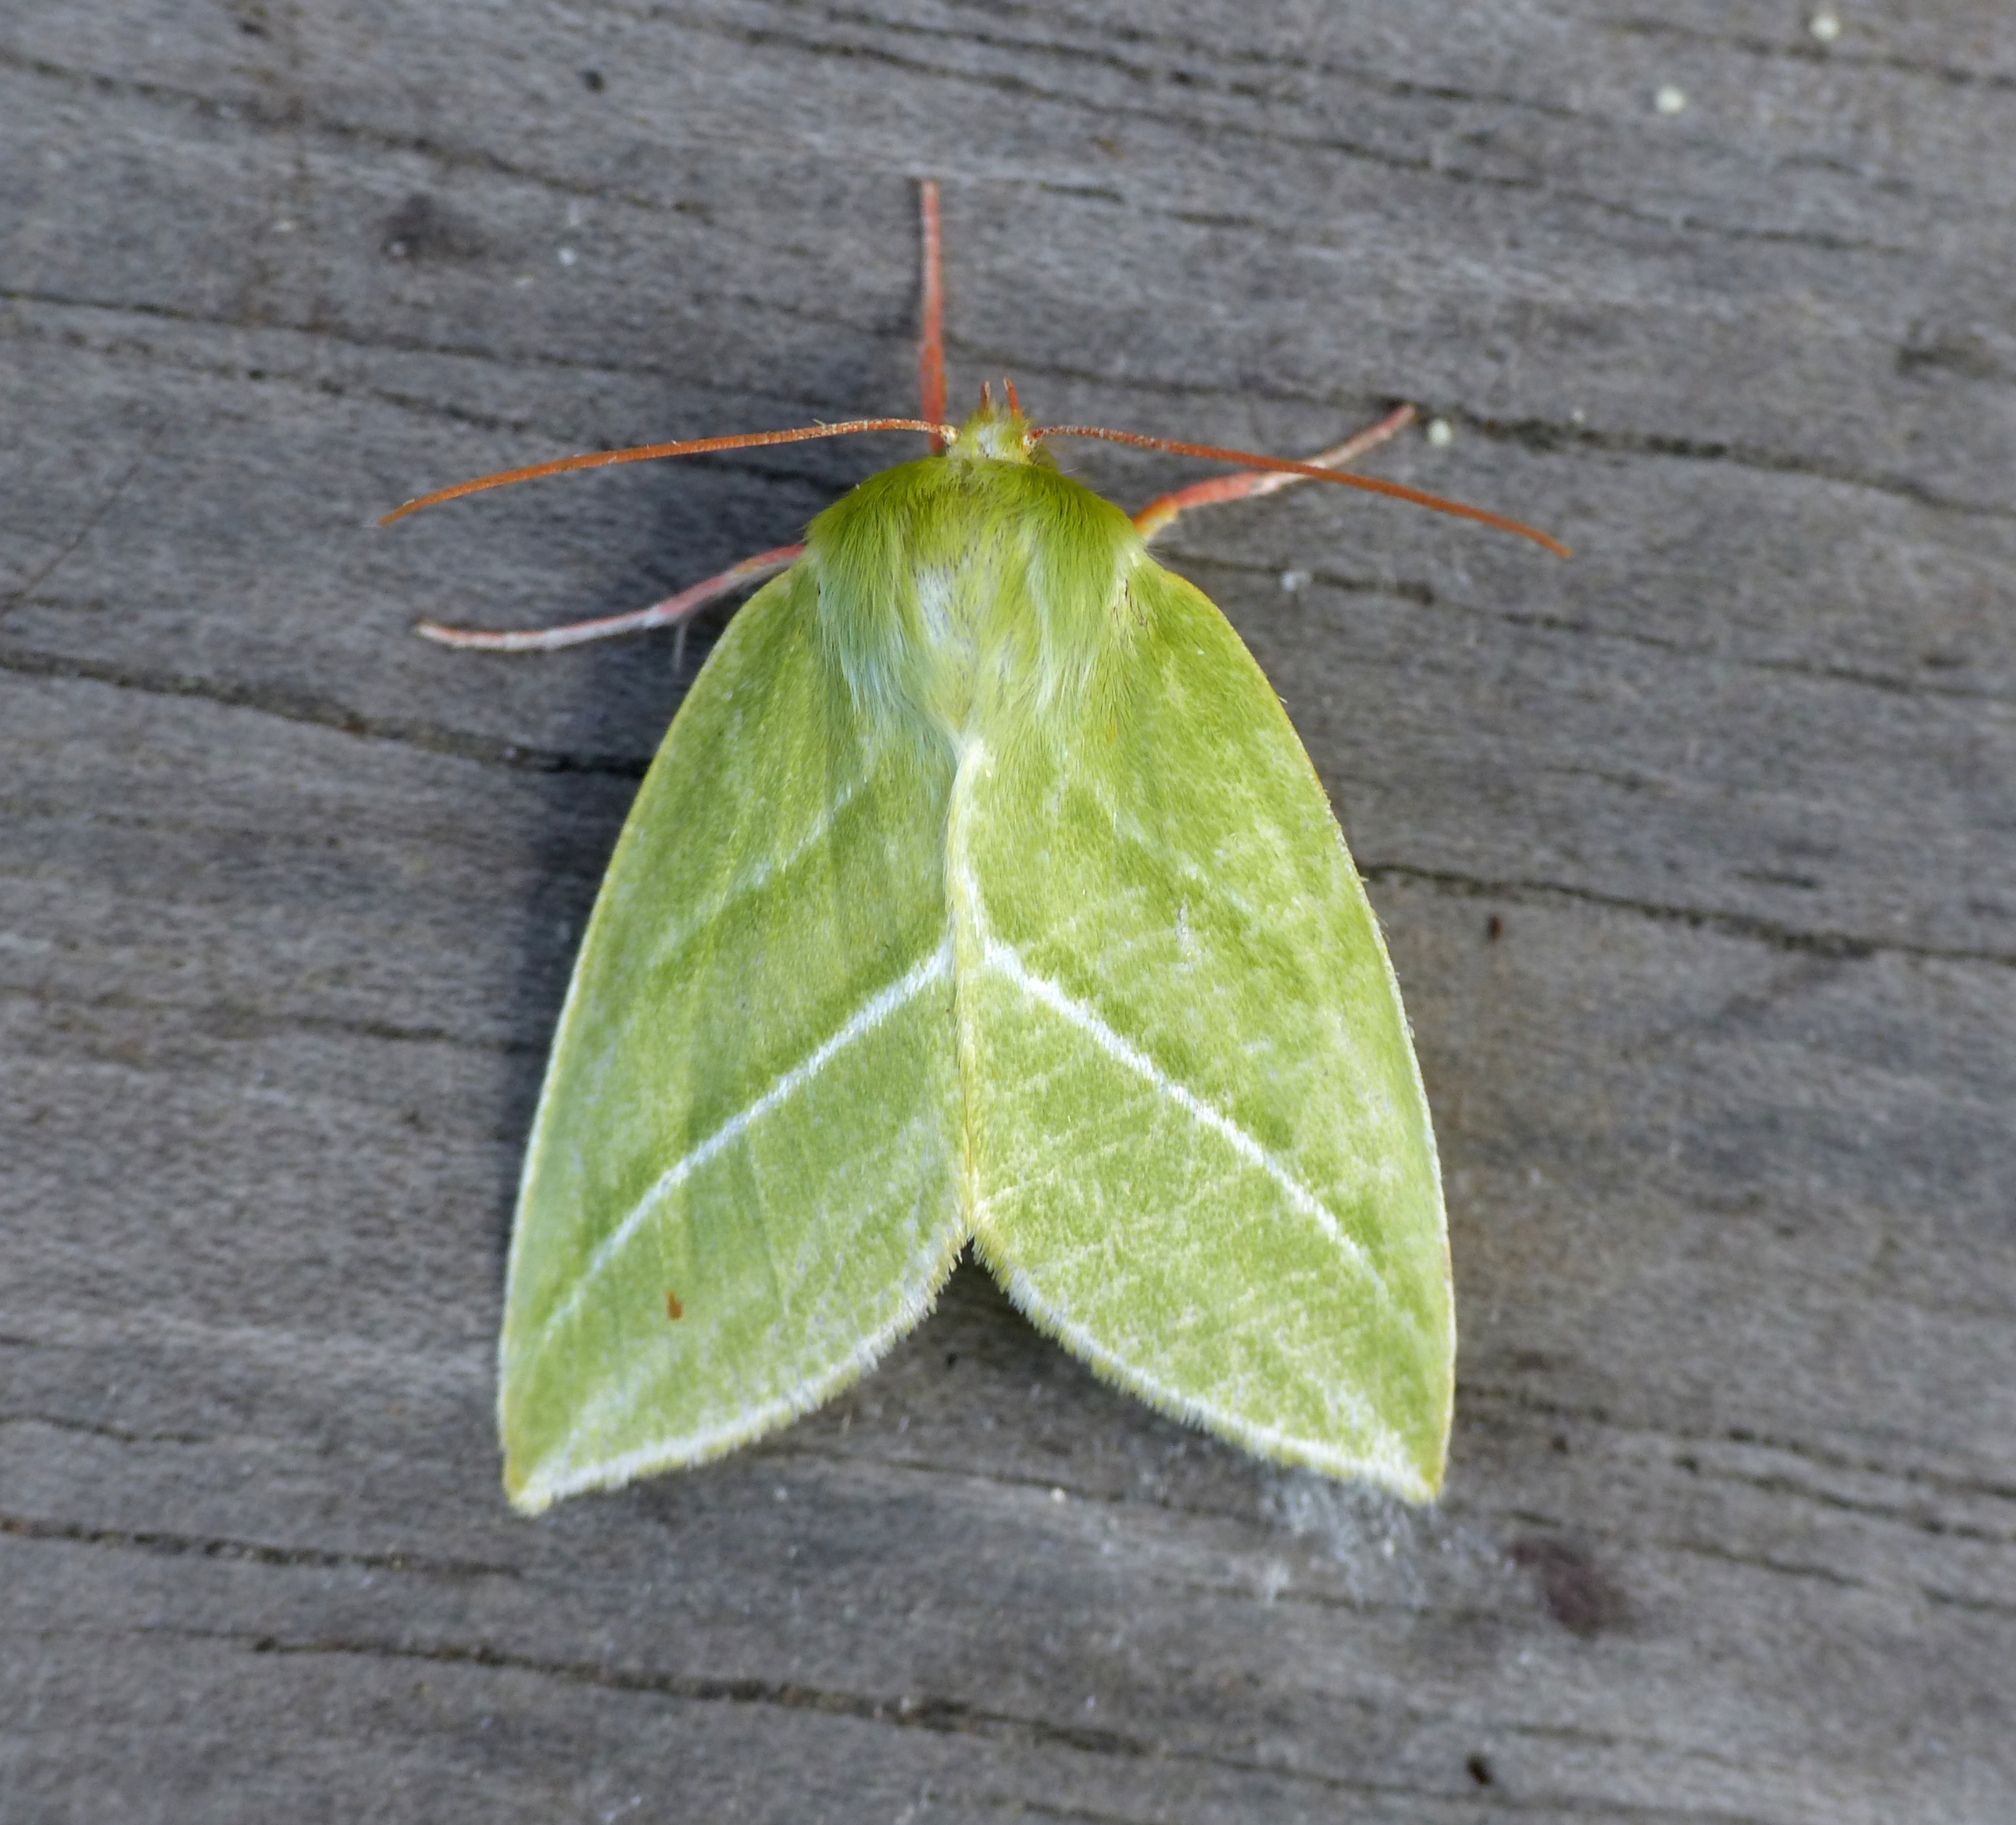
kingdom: Animalia
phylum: Arthropoda
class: Insecta
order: Lepidoptera
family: Nolidae
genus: Pseudoips
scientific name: Pseudoips prasinana
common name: Grøn bøgeugle
